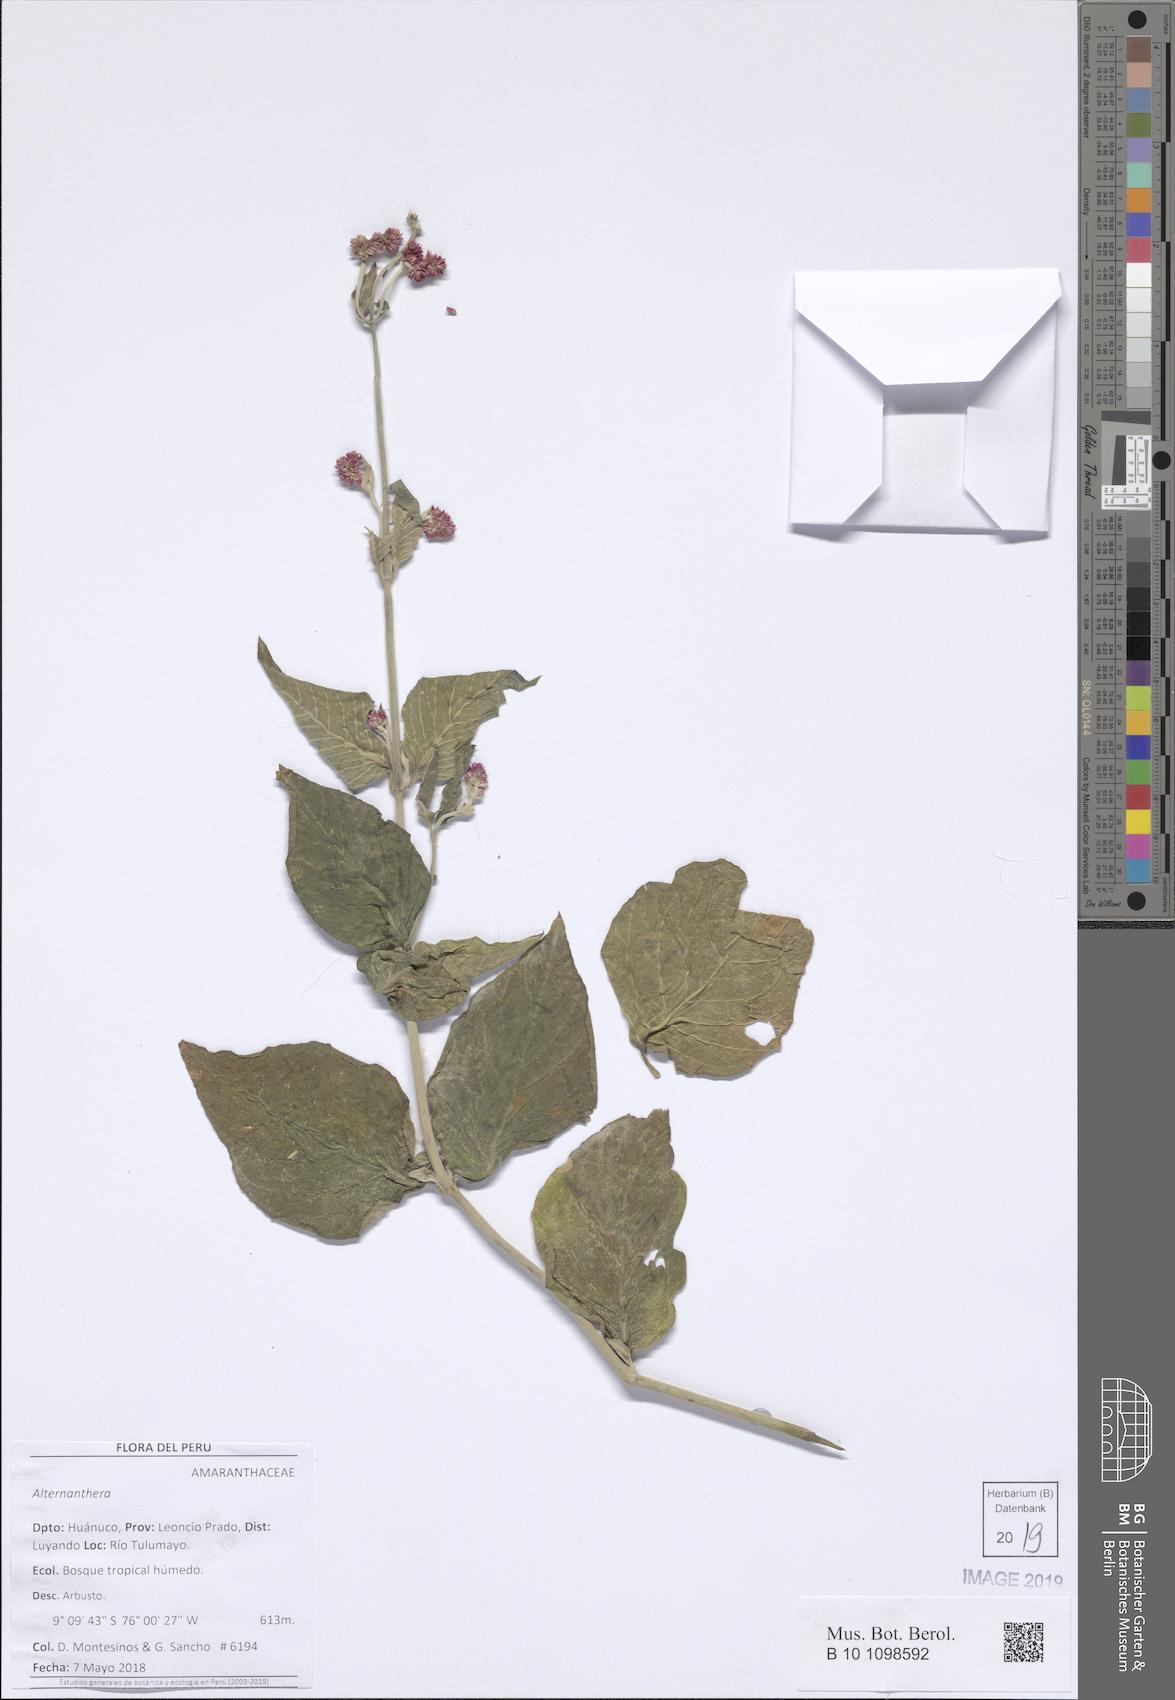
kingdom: Plantae
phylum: Tracheophyta
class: Magnoliopsida
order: Caryophyllales
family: Amaranthaceae
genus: Alternanthera
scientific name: Alternanthera
